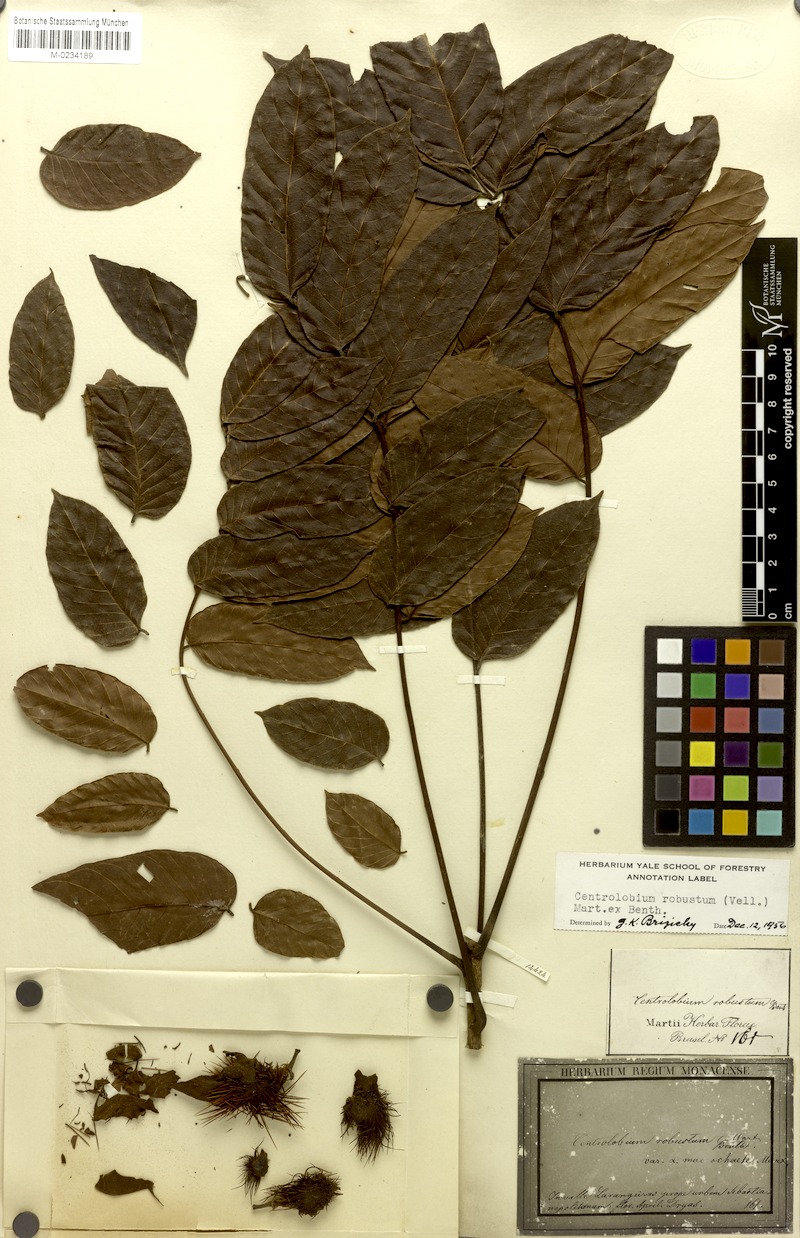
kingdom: Plantae
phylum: Tracheophyta
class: Magnoliopsida
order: Fabales
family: Fabaceae
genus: Centrolobium
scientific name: Centrolobium robustum
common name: Zebrawood
